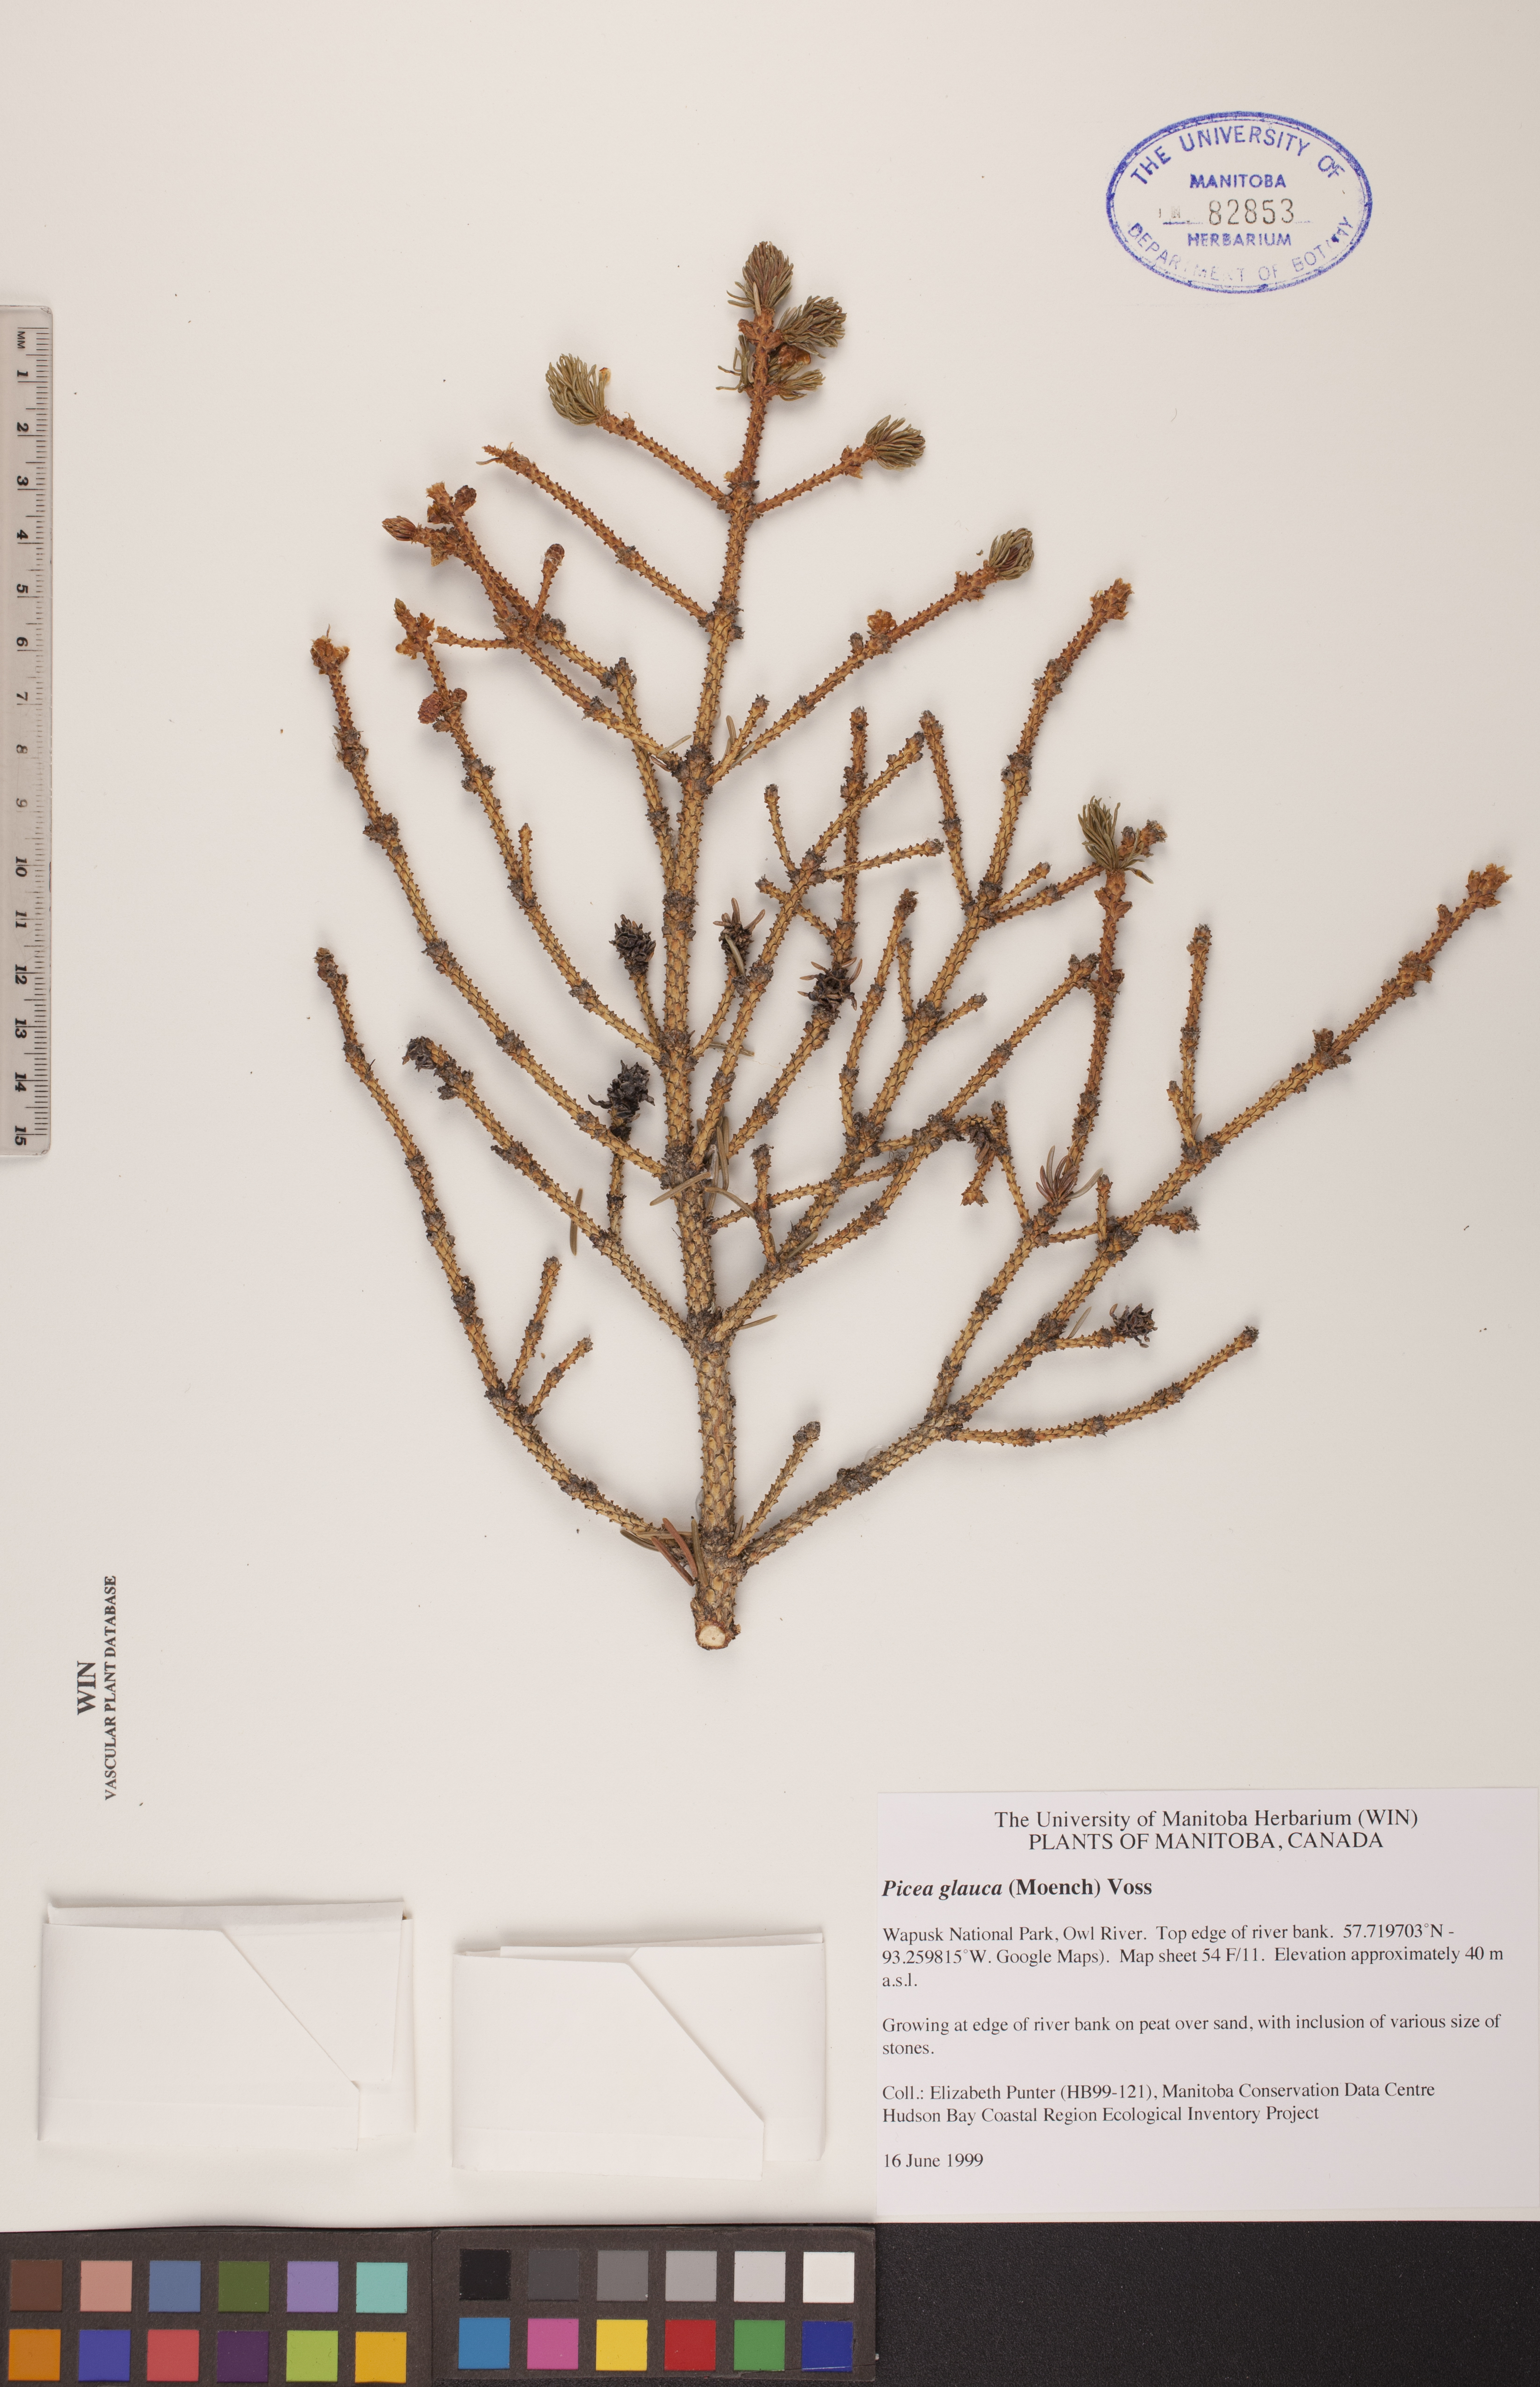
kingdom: Plantae
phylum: Tracheophyta
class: Pinopsida
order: Pinales
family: Pinaceae
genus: Picea
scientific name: Picea glauca
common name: White spruce
